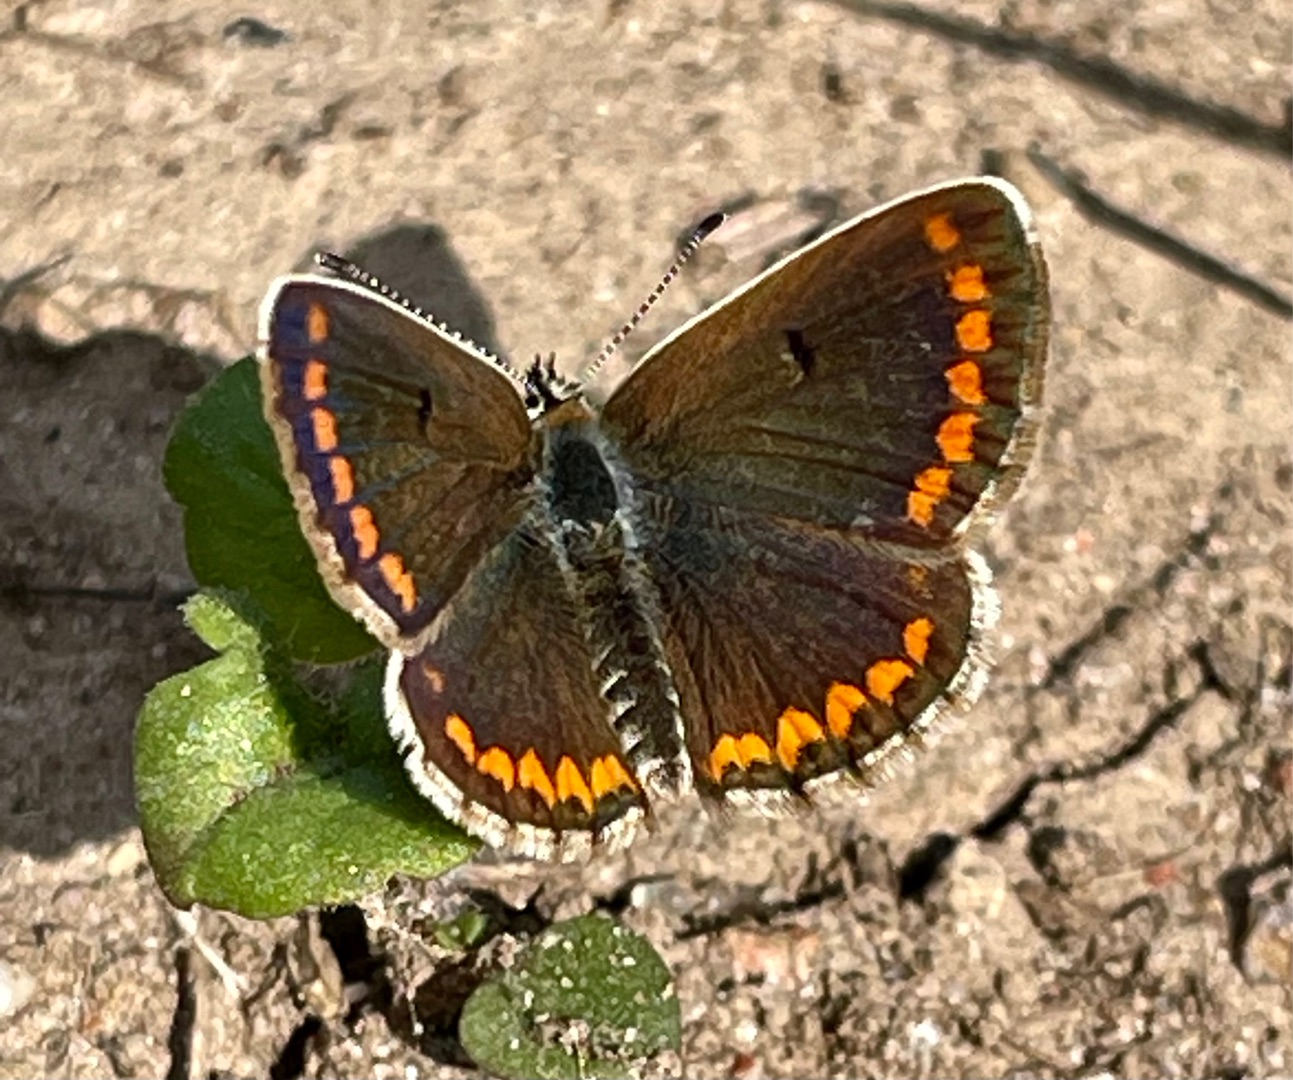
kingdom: Animalia
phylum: Arthropoda
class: Insecta
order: Lepidoptera
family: Lycaenidae
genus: Aricia
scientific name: Aricia agestis
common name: Rødplettet blåfugl
